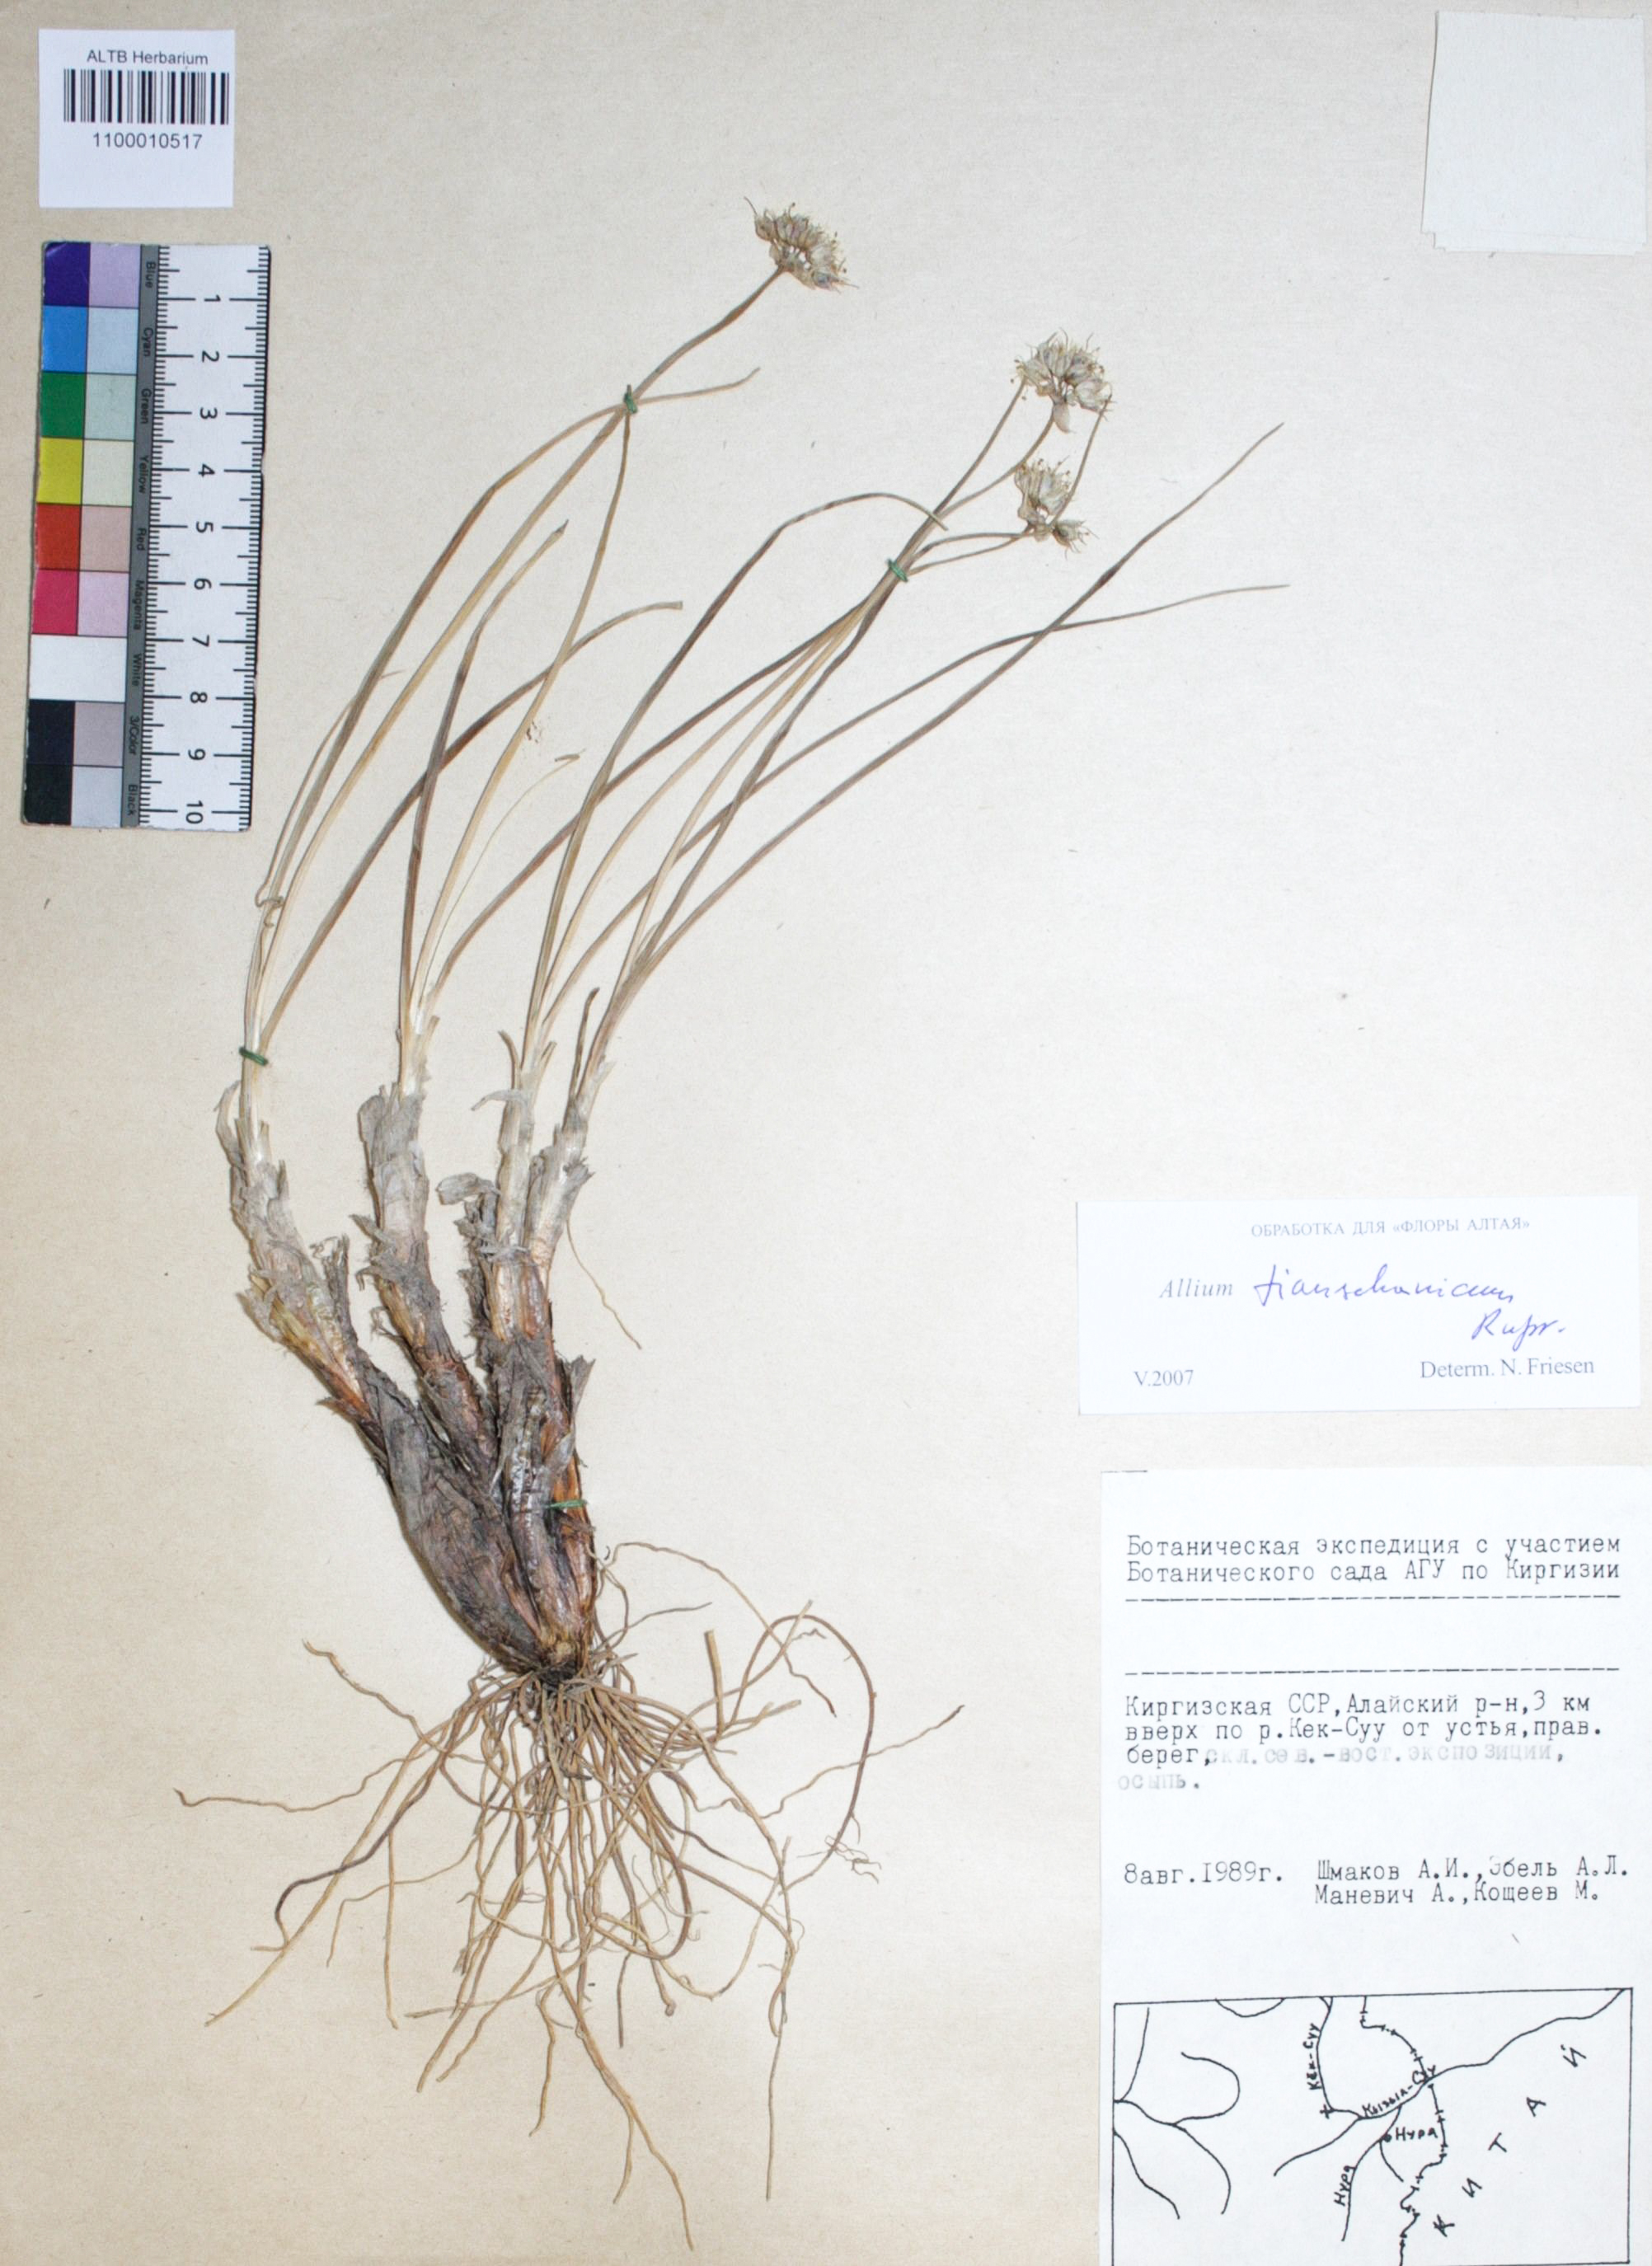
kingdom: Plantae
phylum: Tracheophyta
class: Liliopsida
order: Asparagales
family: Amaryllidaceae
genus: Allium
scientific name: Allium tianschanicum
